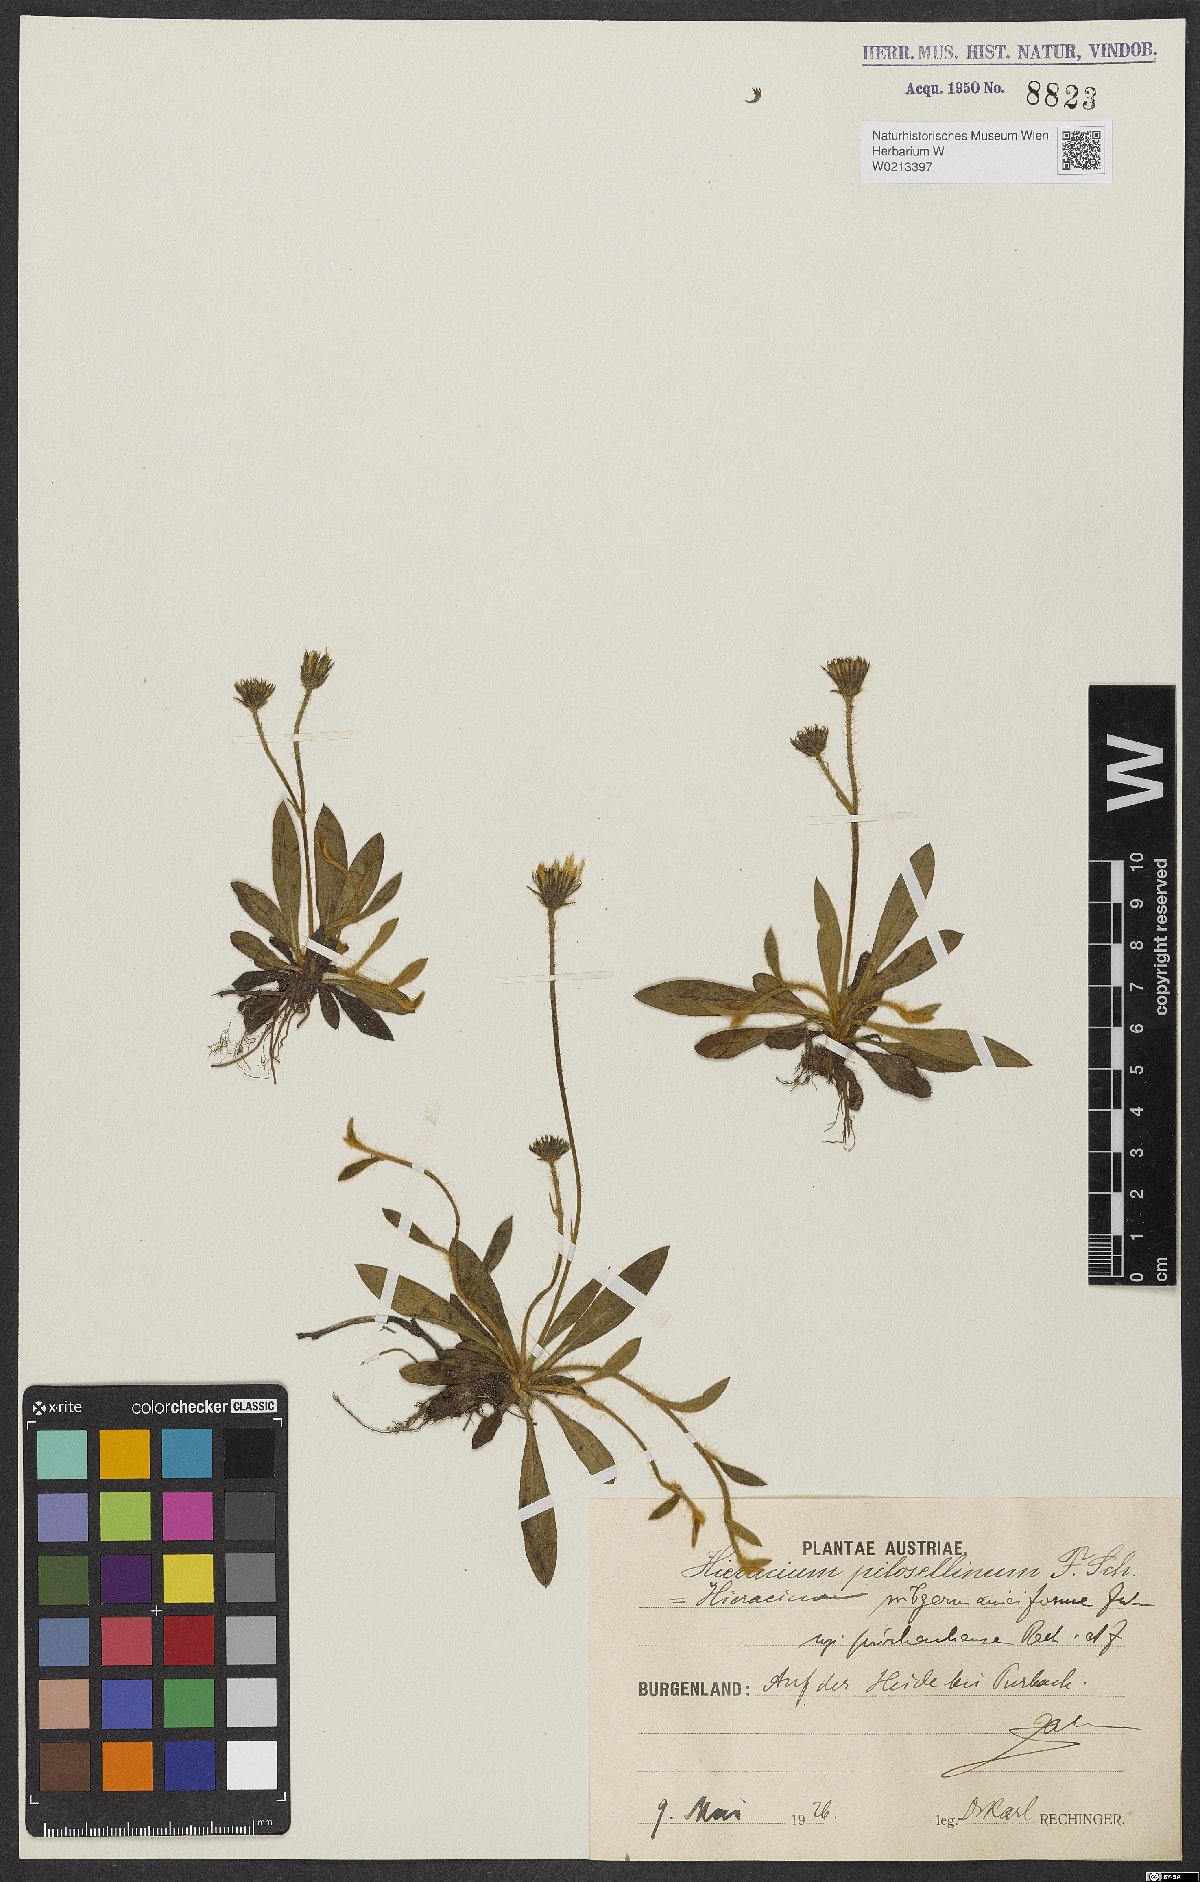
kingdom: Plantae
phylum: Tracheophyta
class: Magnoliopsida
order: Asterales
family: Asteraceae
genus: Pilosella
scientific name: Pilosella fallacina
